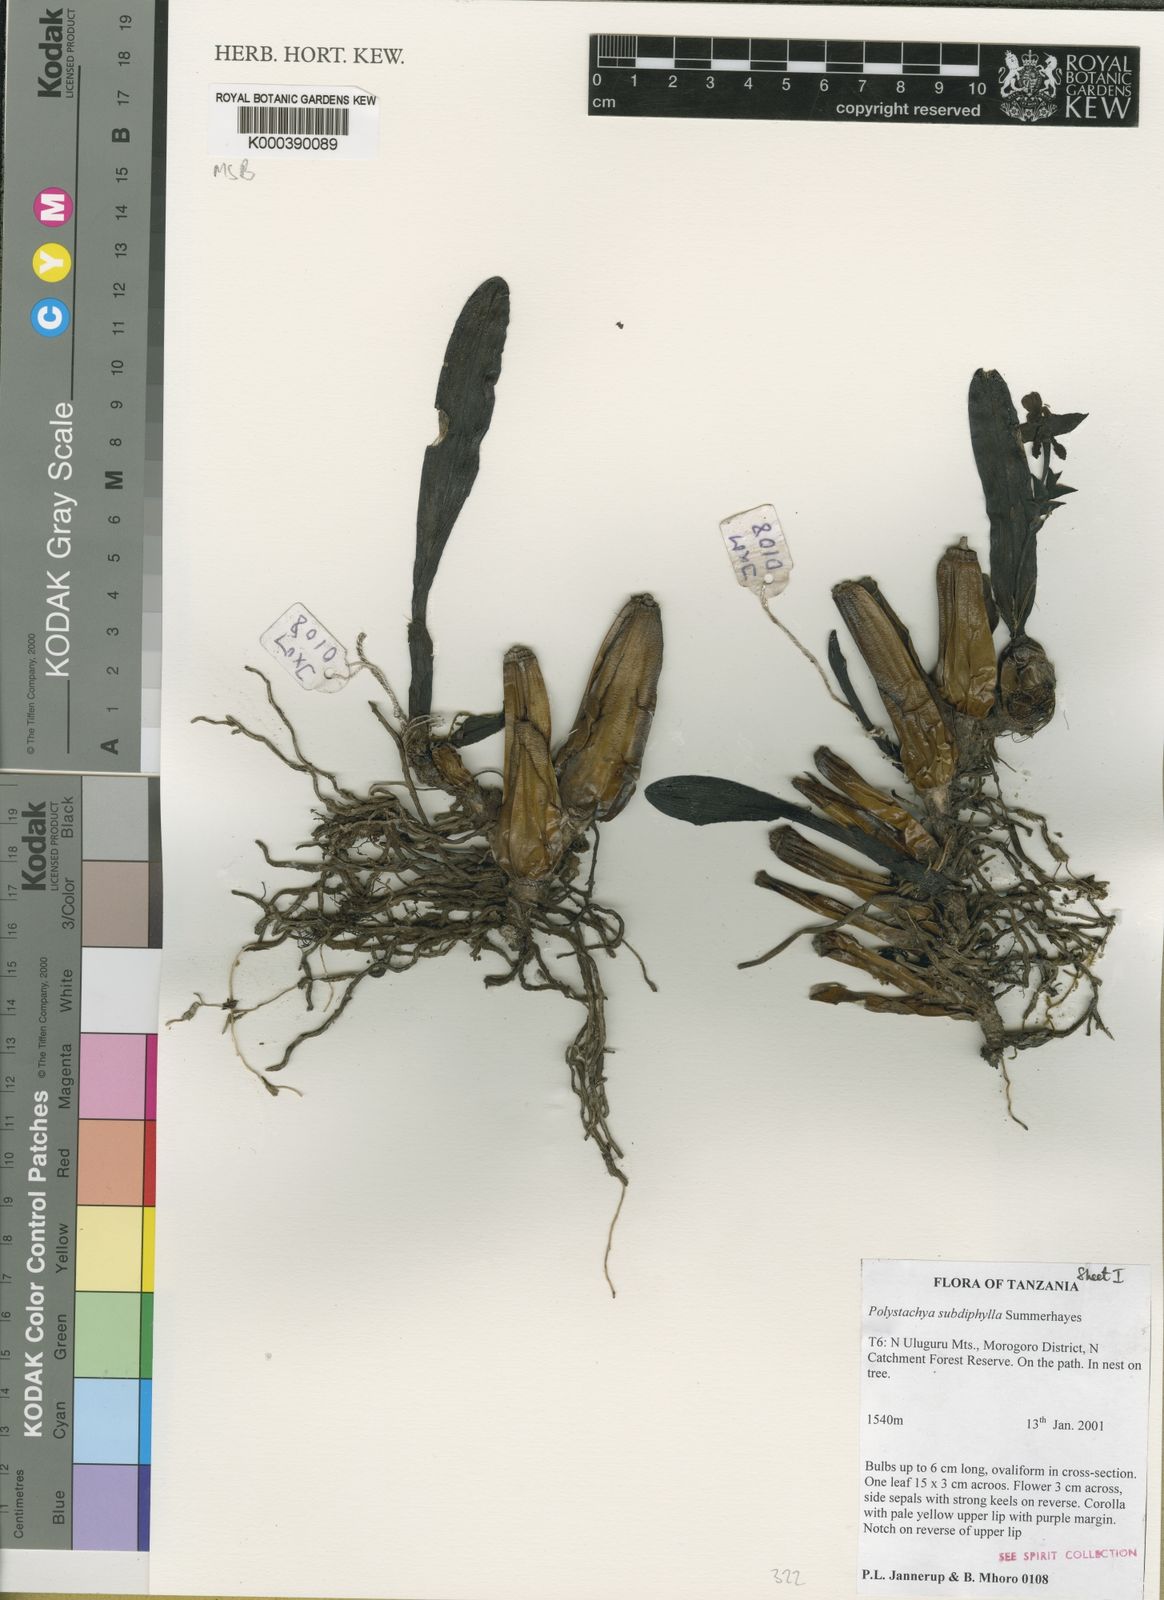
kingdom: Plantae
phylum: Tracheophyta
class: Liliopsida
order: Asparagales
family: Orchidaceae
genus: Polystachya
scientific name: Polystachya porphyrochila
